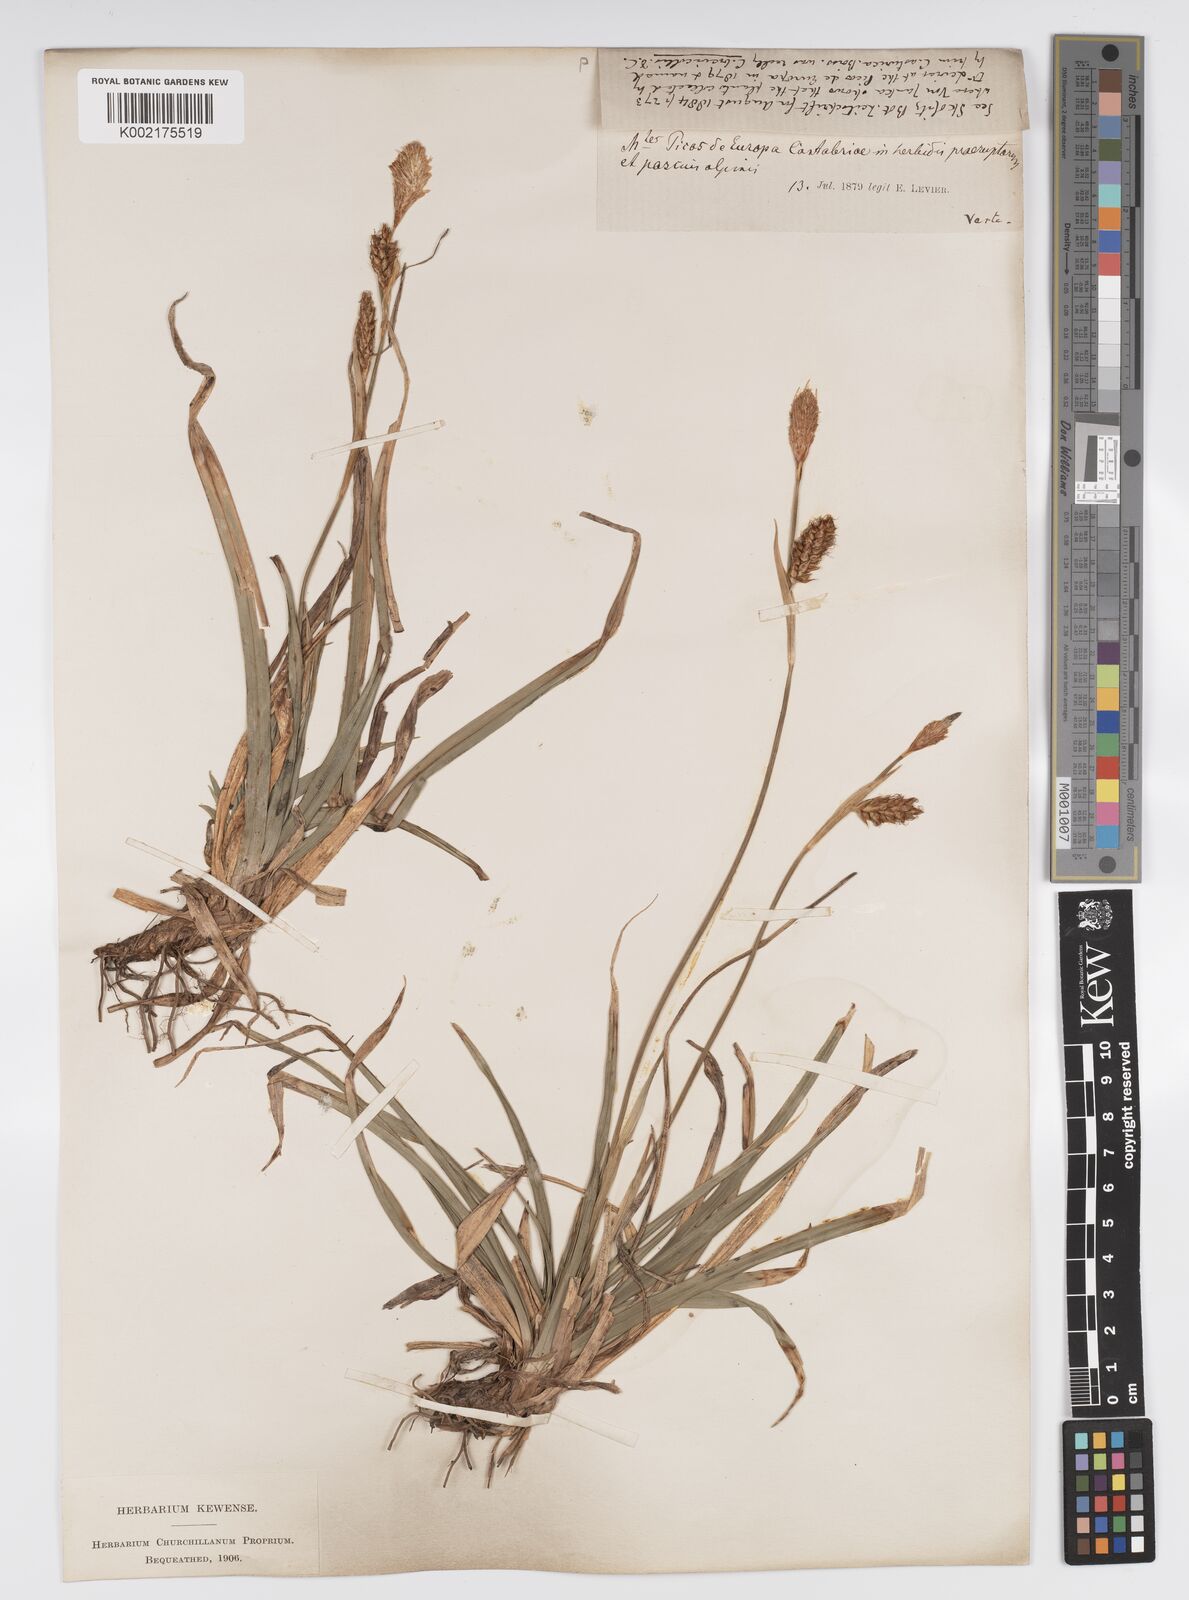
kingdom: Plantae
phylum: Tracheophyta
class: Liliopsida
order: Poales
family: Cyperaceae
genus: Carex
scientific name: Carex brevicollis
